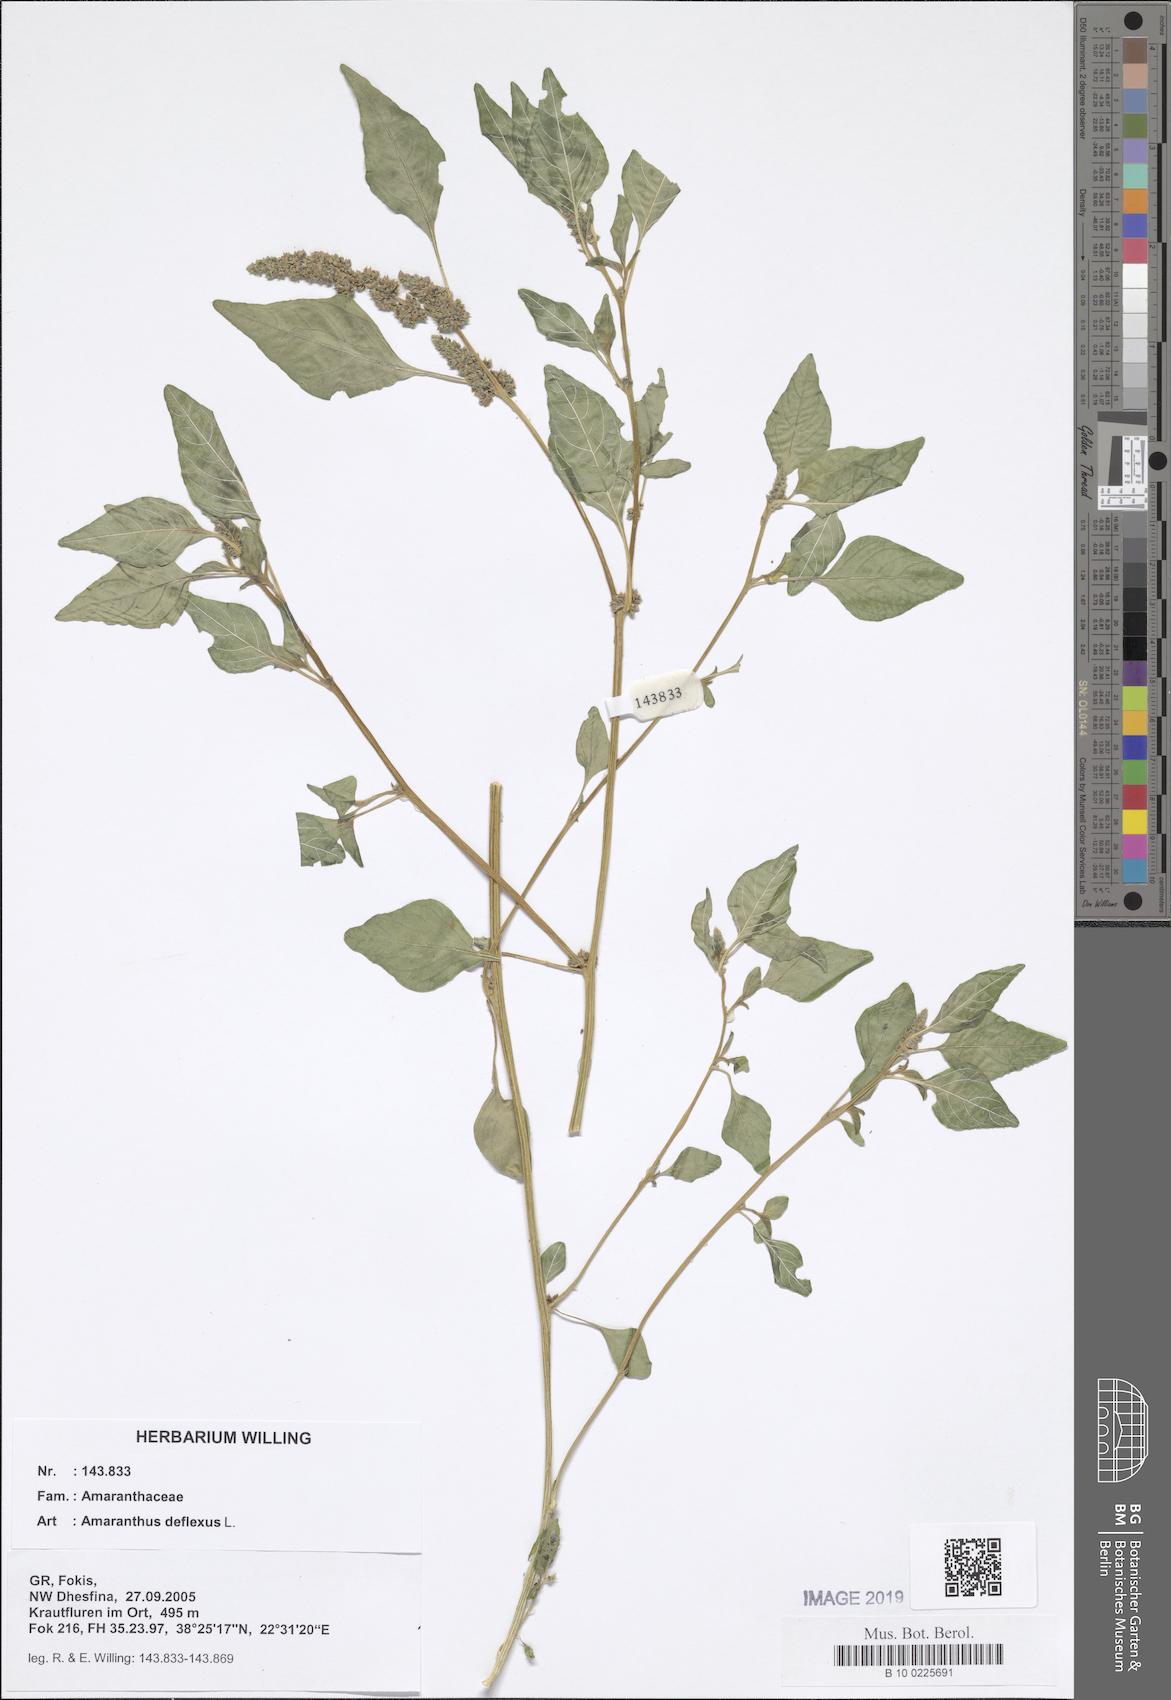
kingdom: Plantae
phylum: Tracheophyta
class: Magnoliopsida
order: Caryophyllales
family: Amaranthaceae
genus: Amaranthus
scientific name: Amaranthus deflexus
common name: Perennial pigweed
